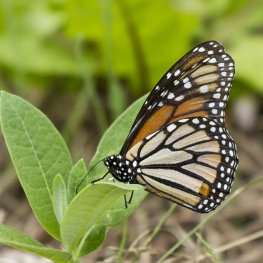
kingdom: Animalia
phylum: Arthropoda
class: Insecta
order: Lepidoptera
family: Nymphalidae
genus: Danaus
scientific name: Danaus plexippus
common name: Monarch
